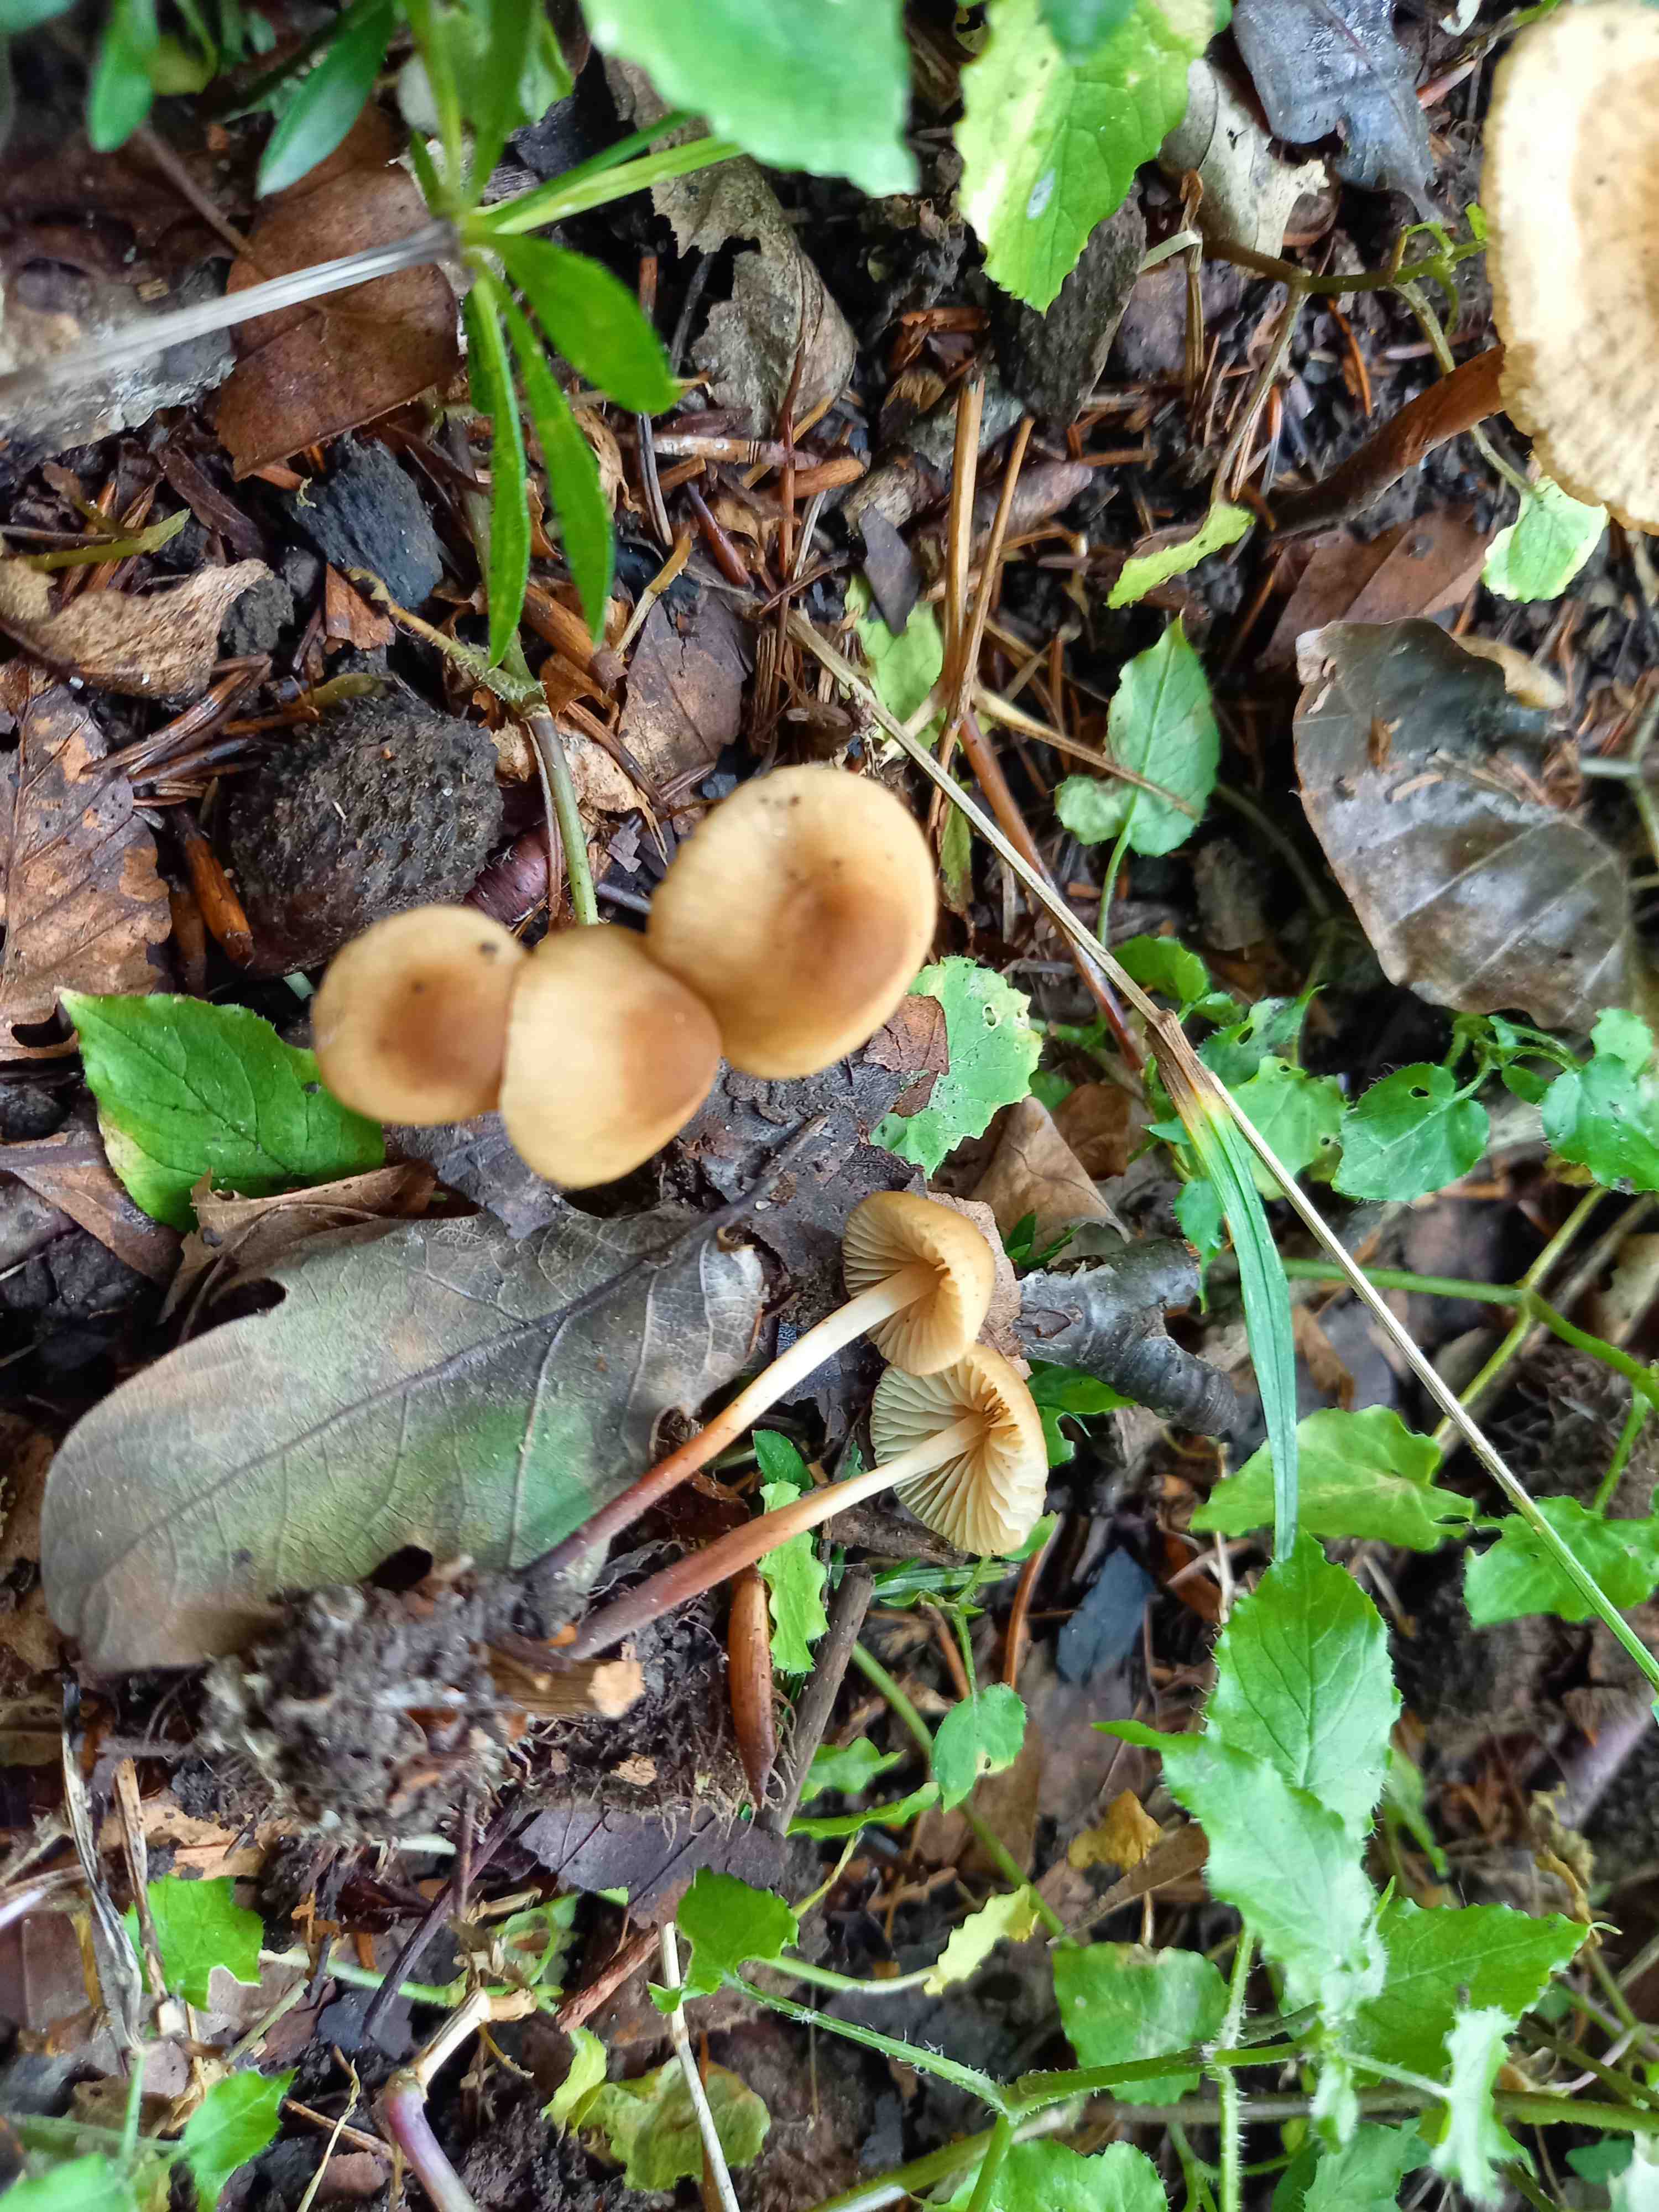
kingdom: Fungi
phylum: Basidiomycota
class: Agaricomycetes
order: Agaricales
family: Marasmiaceae
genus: Marasmius
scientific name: Marasmius torquescens
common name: filtfodet bruskhat
